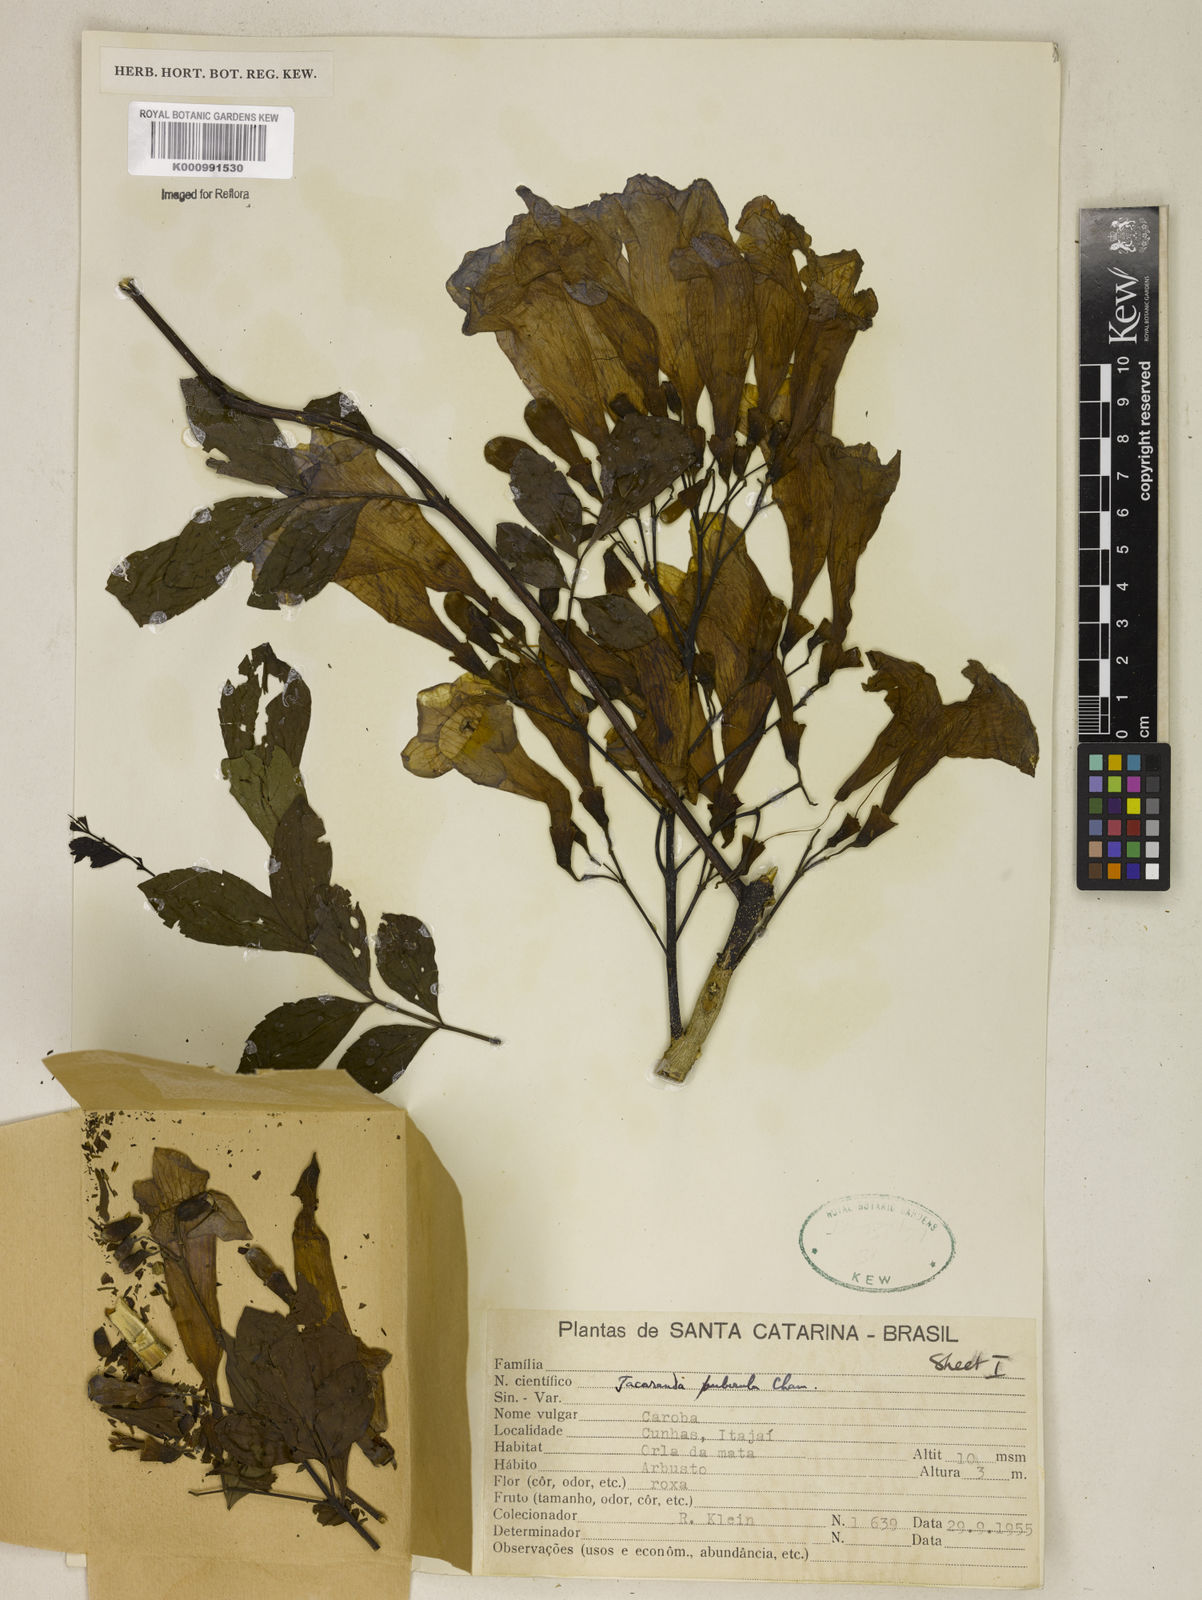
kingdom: Plantae
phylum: Tracheophyta
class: Magnoliopsida
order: Lamiales
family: Bignoniaceae
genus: Jacaranda
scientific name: Jacaranda puberula
